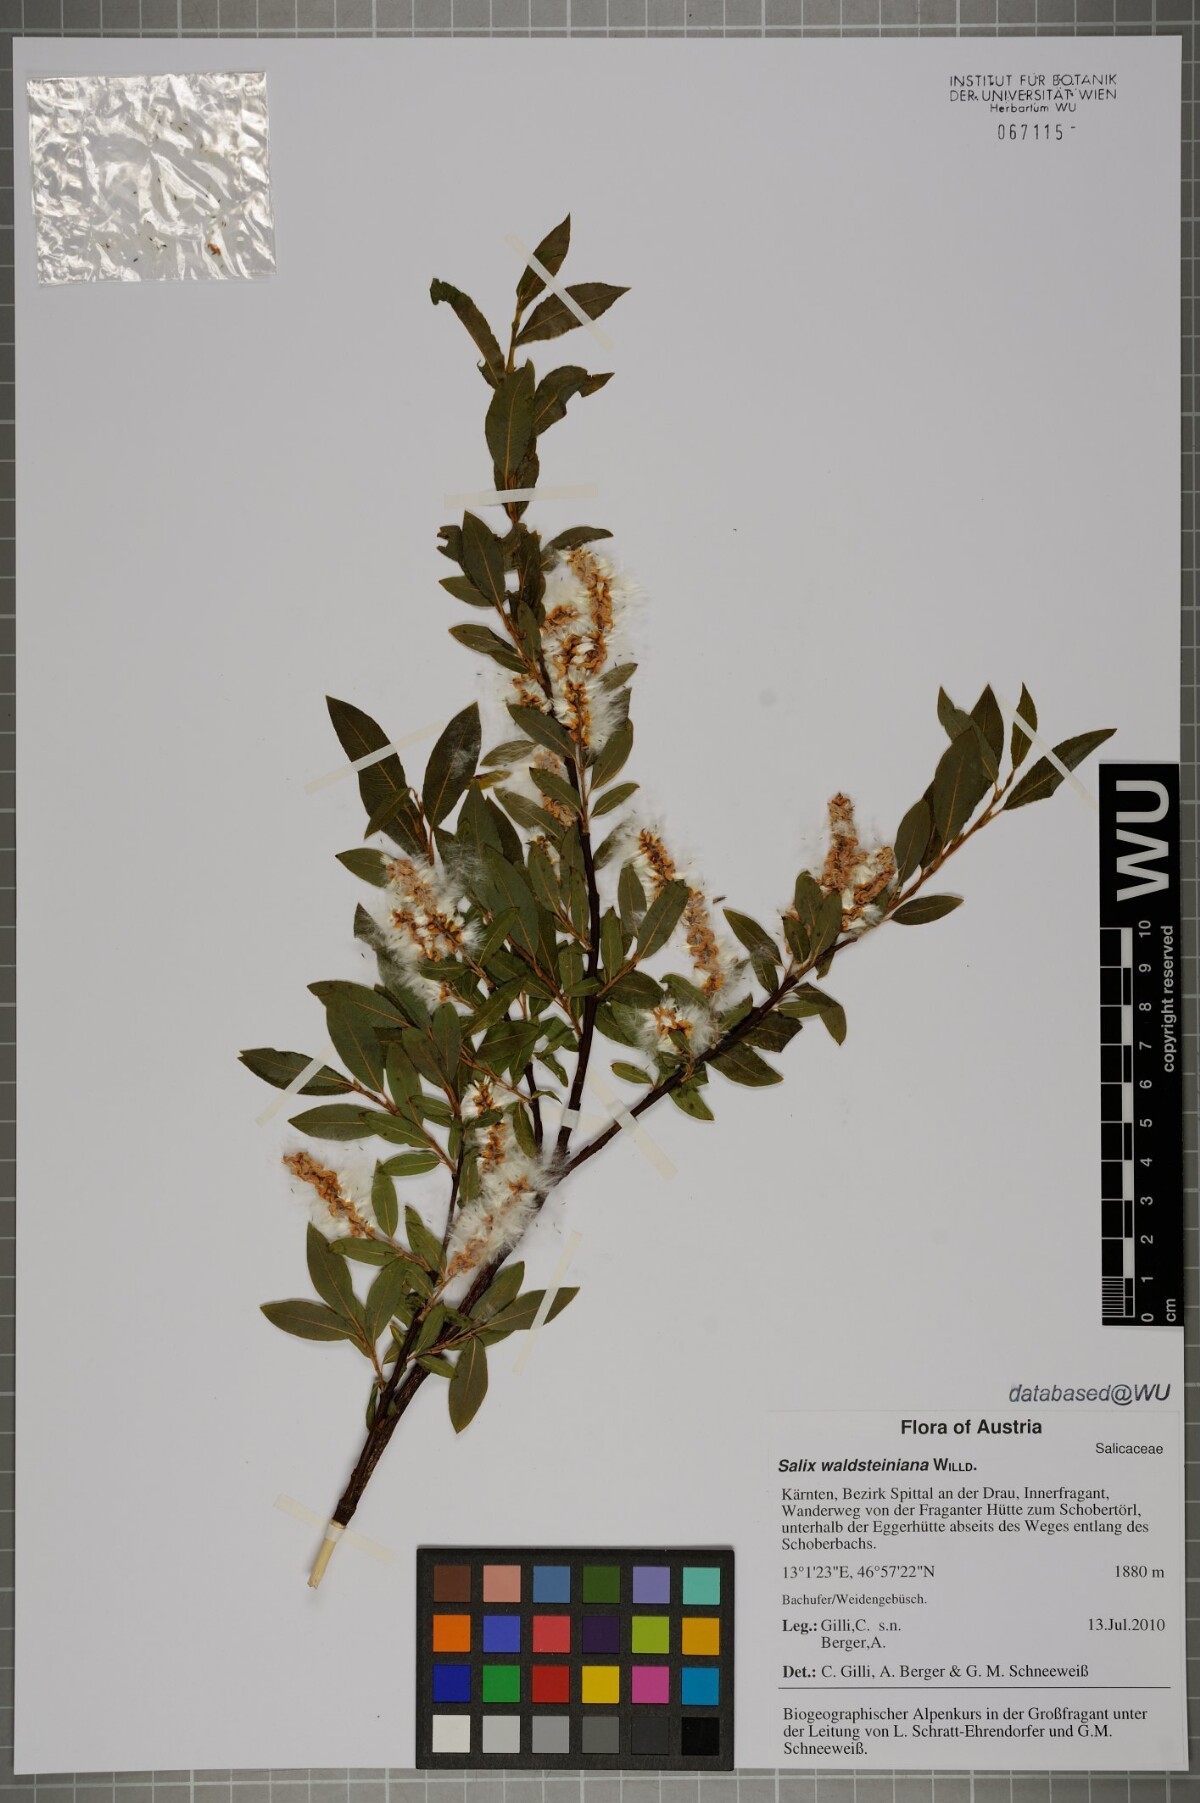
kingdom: Plantae
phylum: Tracheophyta
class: Magnoliopsida
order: Malpighiales
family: Salicaceae
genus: Salix
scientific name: Salix waldsteiniana
